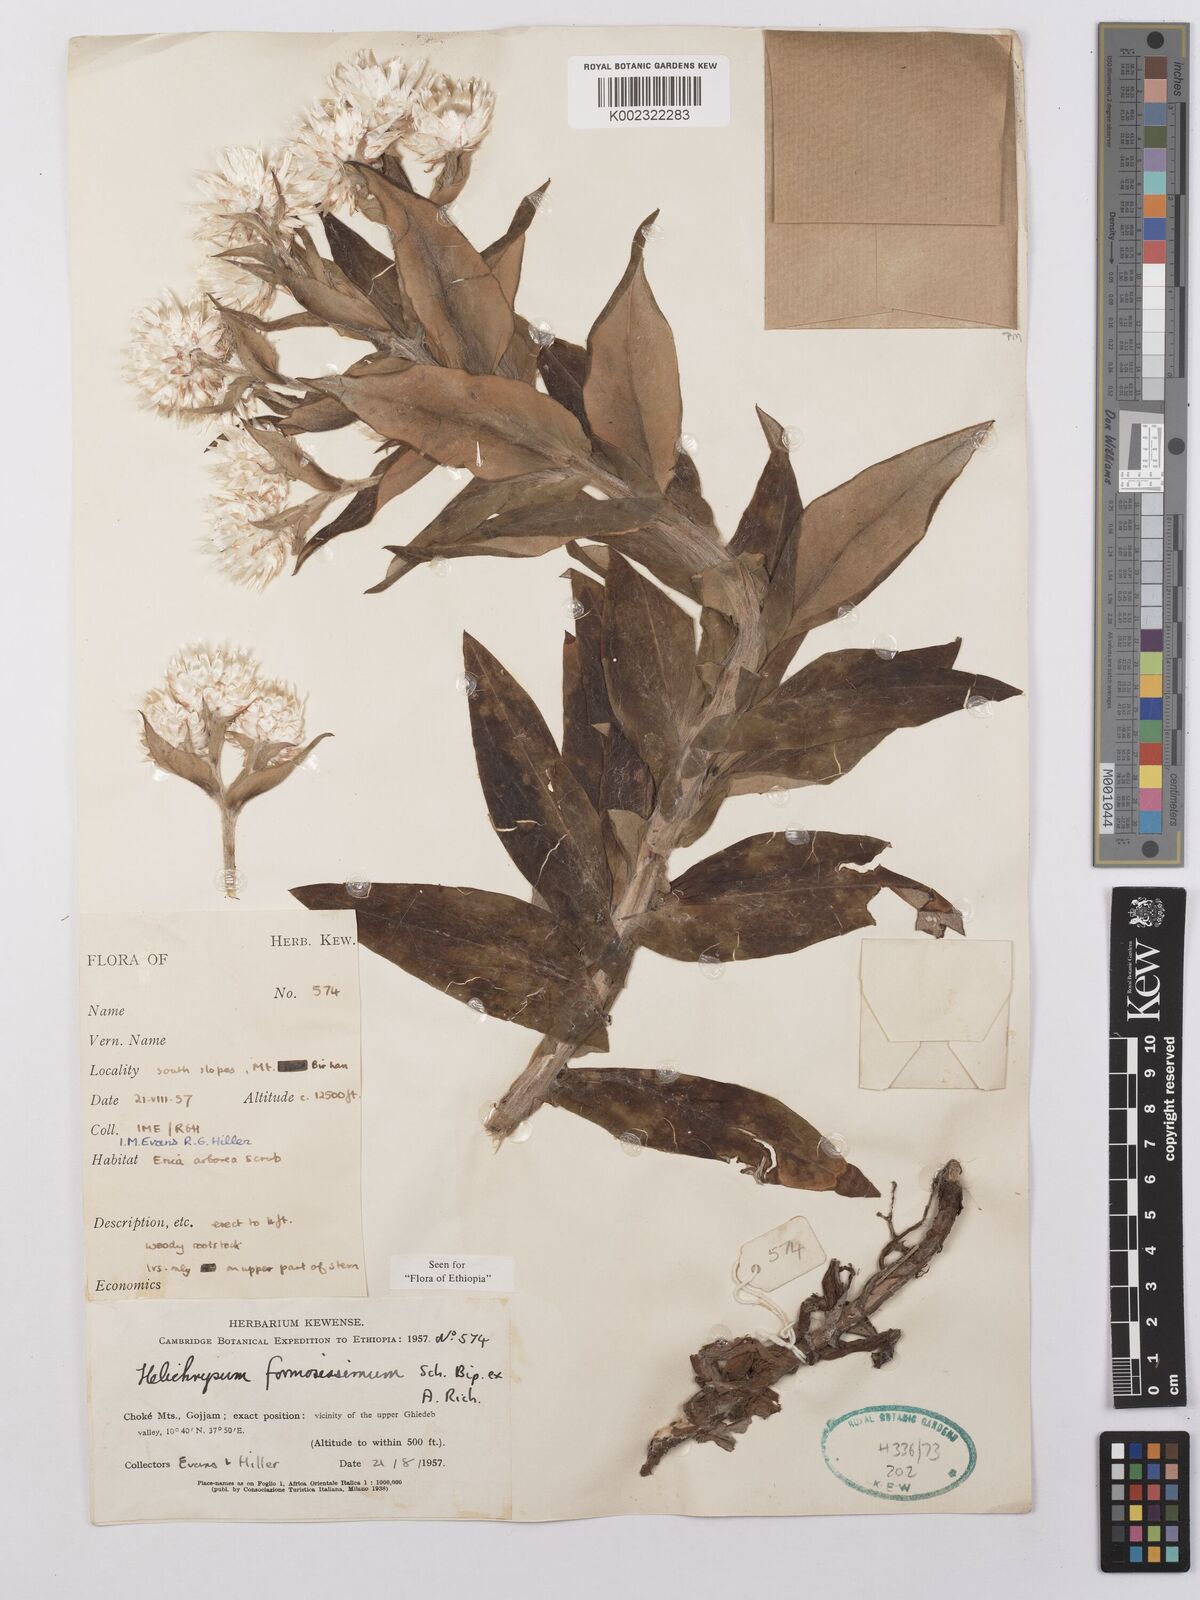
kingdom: Plantae
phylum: Tracheophyta
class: Magnoliopsida
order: Asterales
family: Asteraceae
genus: Helichrysum
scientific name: Helichrysum formosissimum
